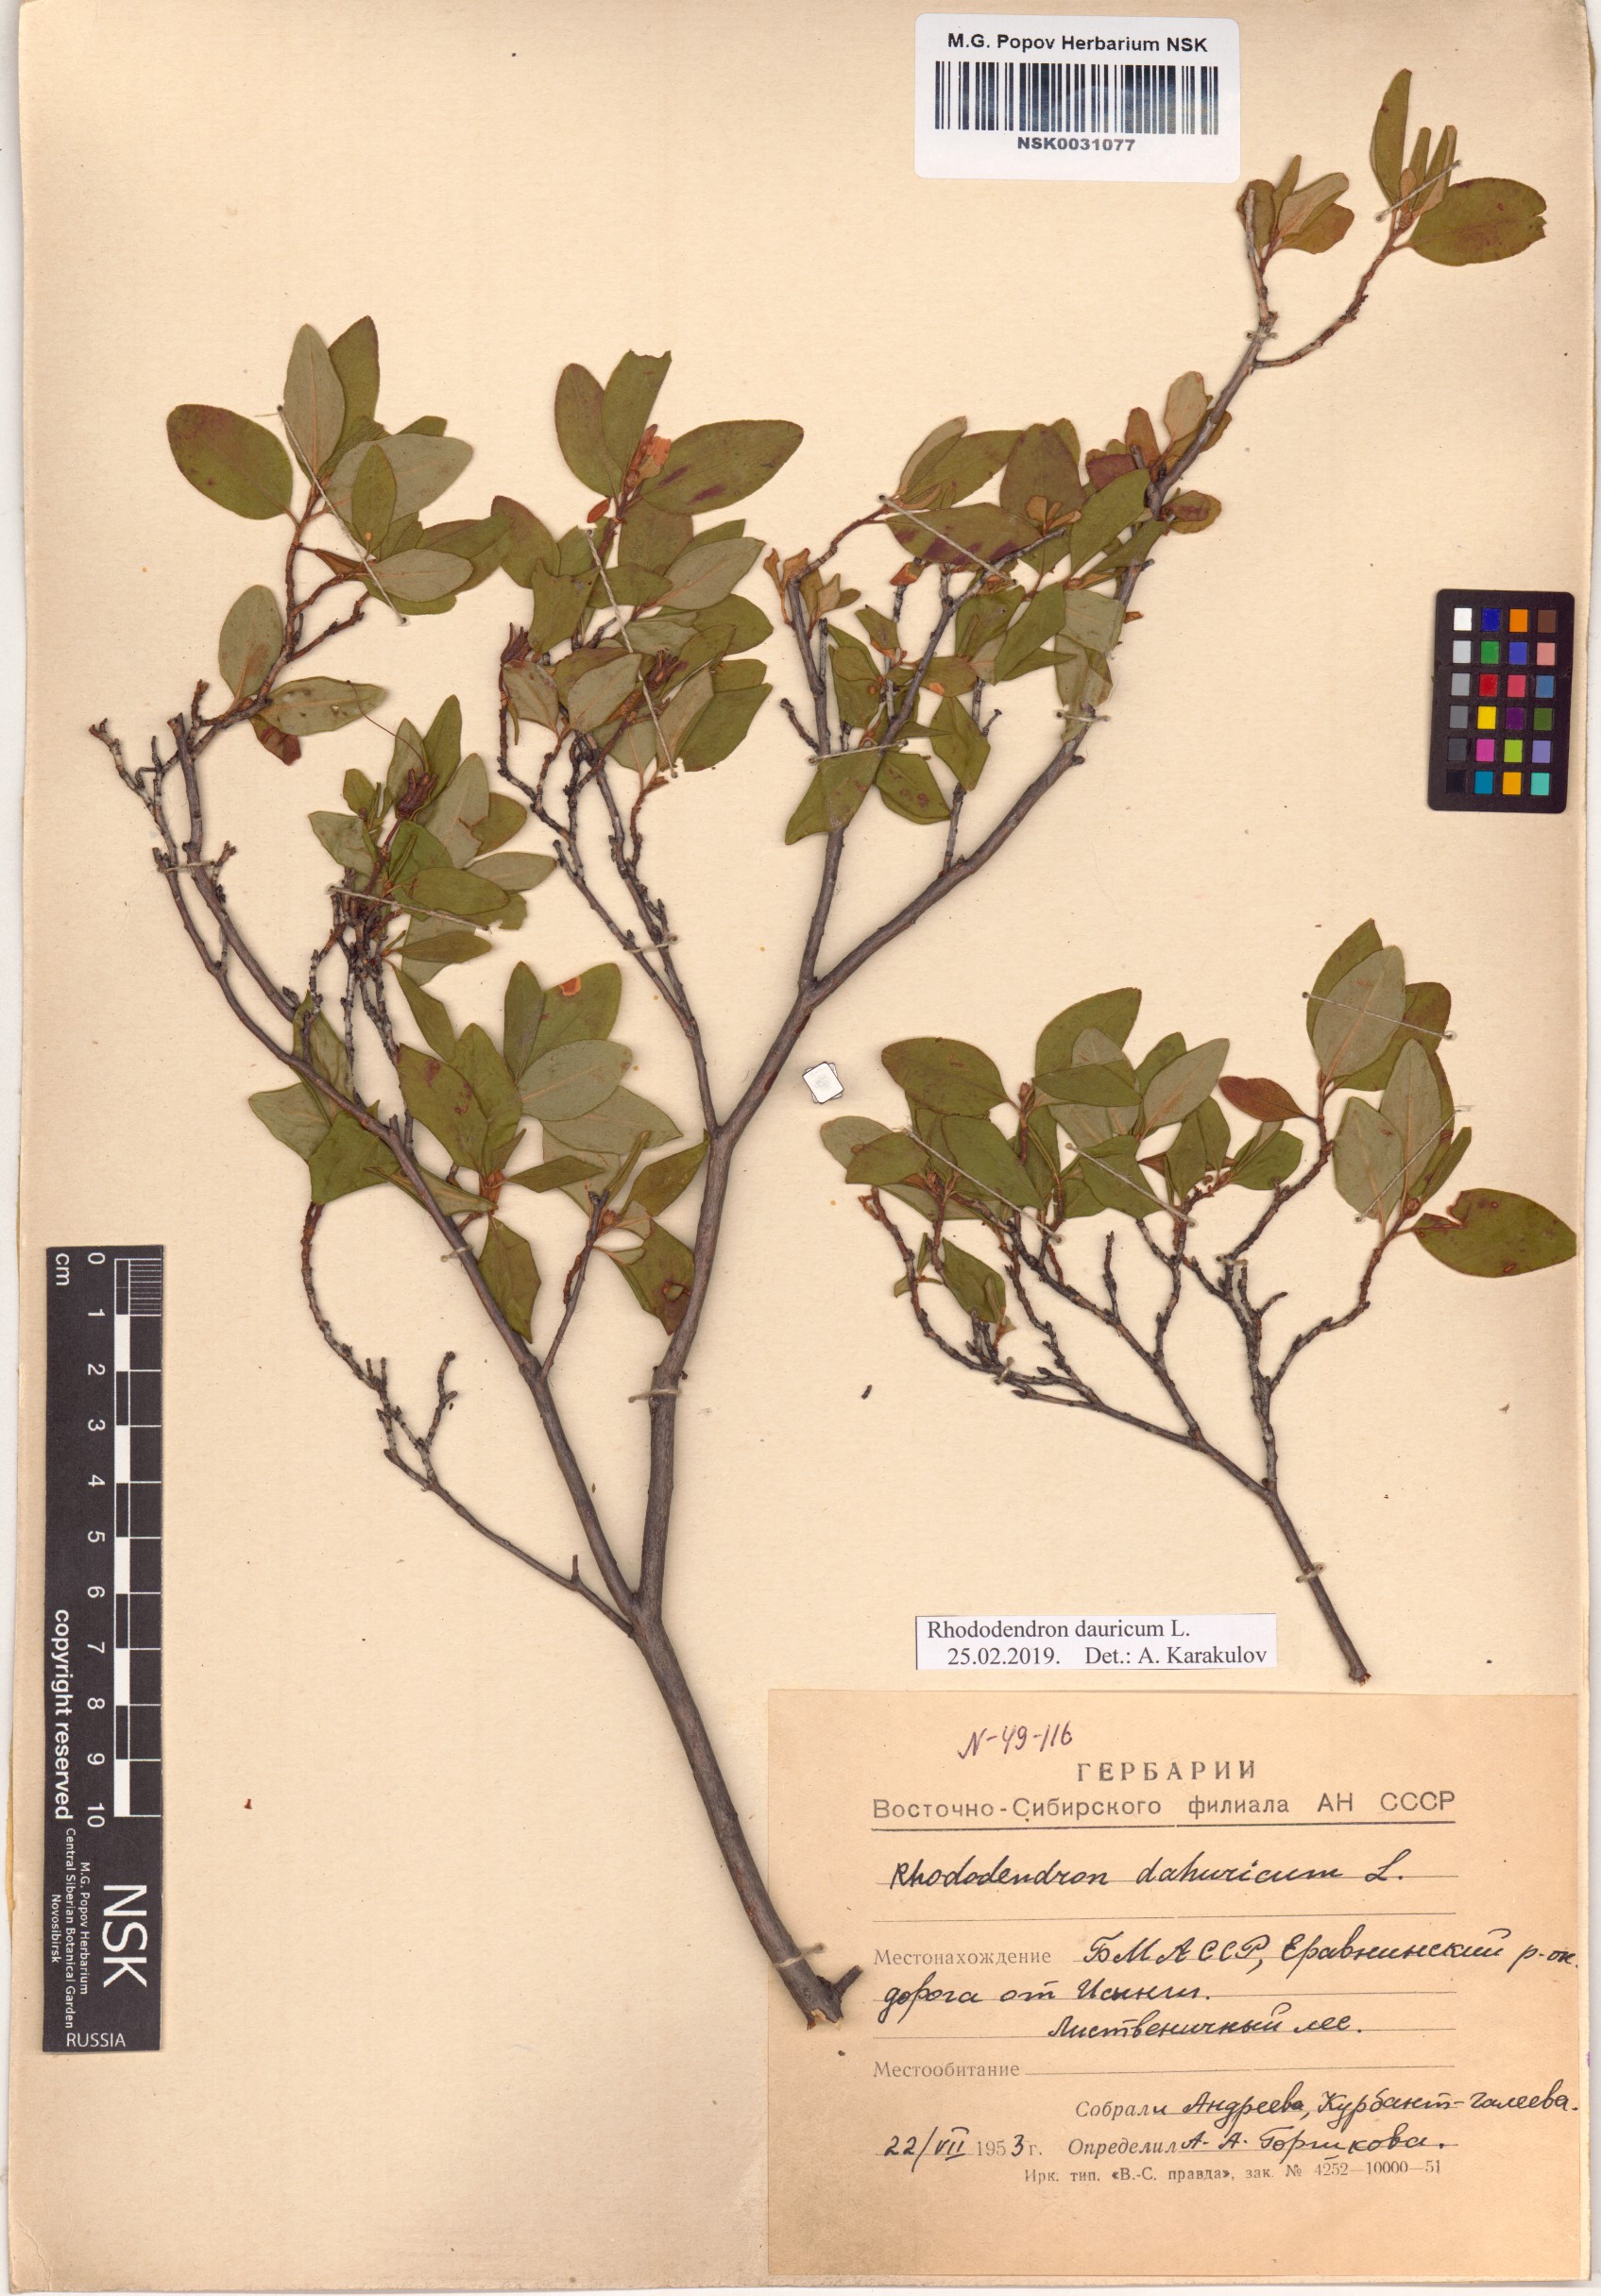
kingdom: Plantae
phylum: Tracheophyta
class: Magnoliopsida
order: Ericales
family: Ericaceae
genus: Rhododendron
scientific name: Rhododendron dauricum
